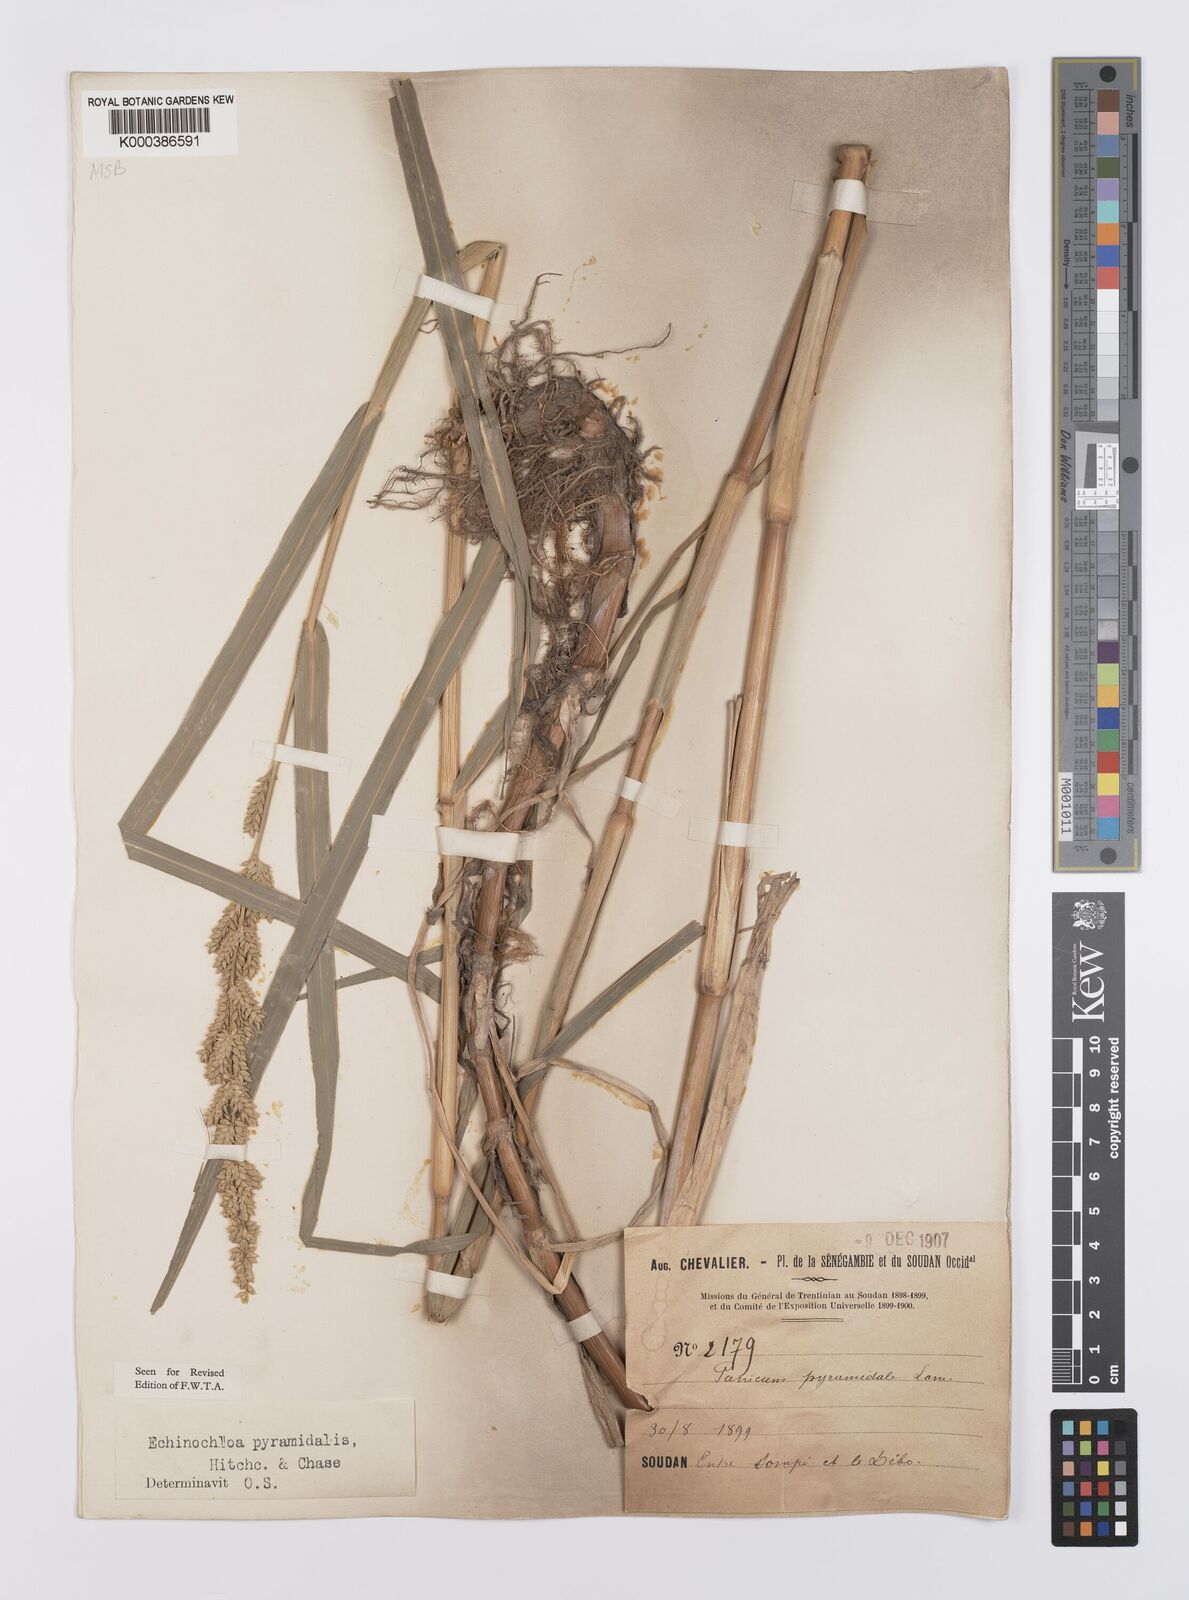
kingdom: Plantae
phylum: Tracheophyta
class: Liliopsida
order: Poales
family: Poaceae
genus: Echinochloa
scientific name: Echinochloa pyramidalis
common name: Antelope grass
